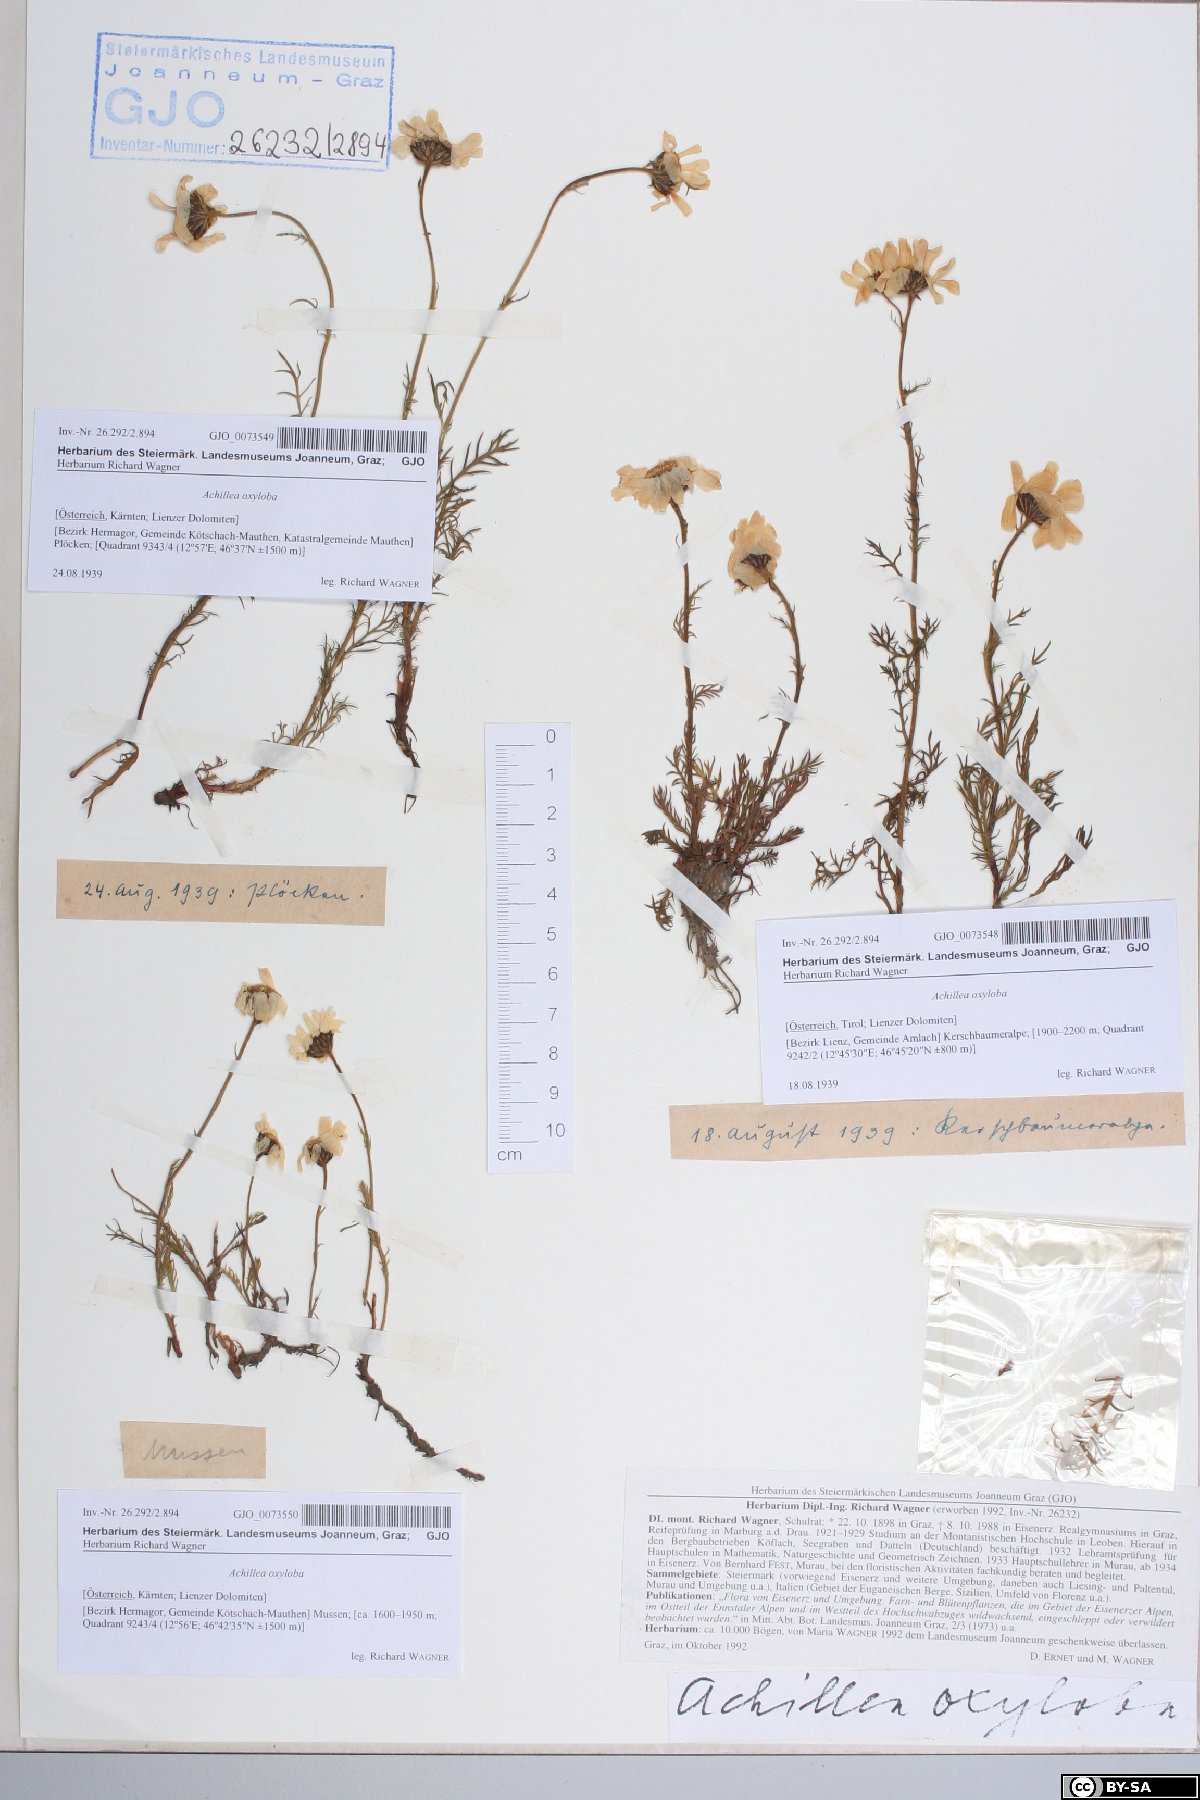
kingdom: Plantae
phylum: Tracheophyta
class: Magnoliopsida
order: Asterales
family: Asteraceae
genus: Achillea
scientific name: Achillea oxyloba
